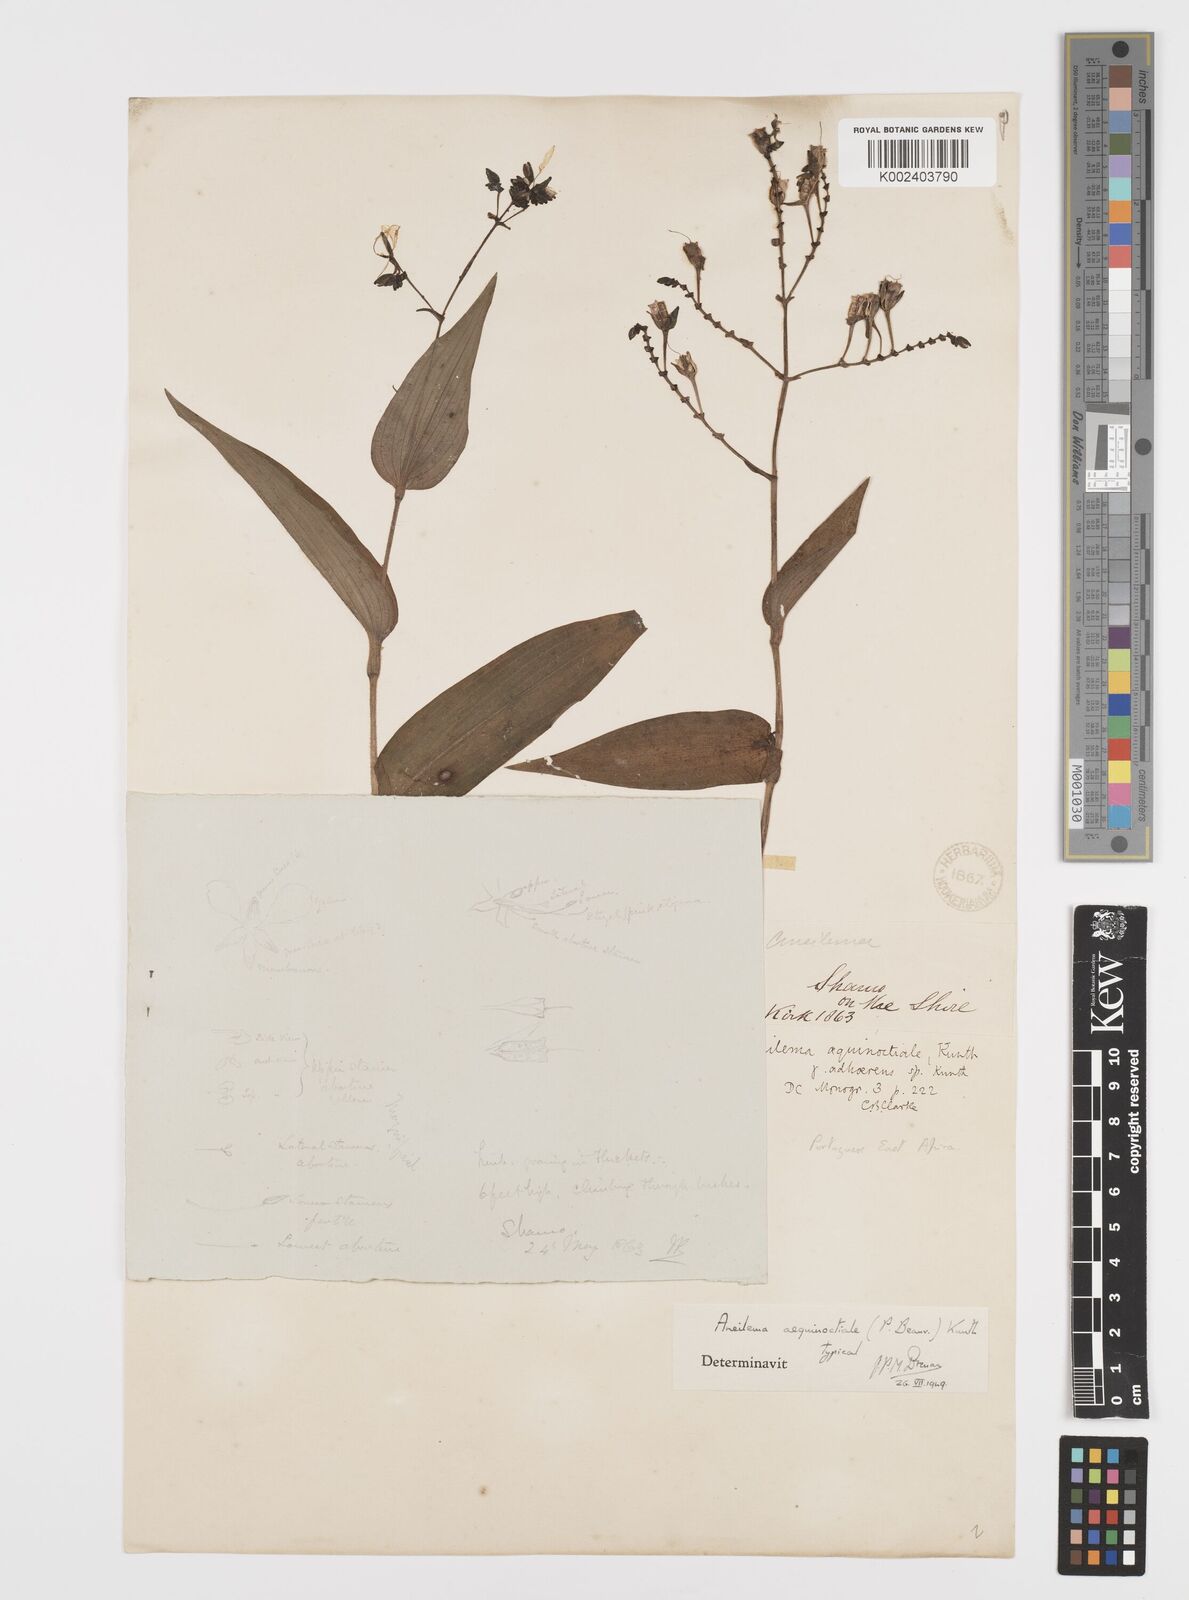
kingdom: Plantae
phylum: Tracheophyta
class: Liliopsida
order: Commelinales
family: Commelinaceae
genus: Aneilema
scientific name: Aneilema aequinoctiale
